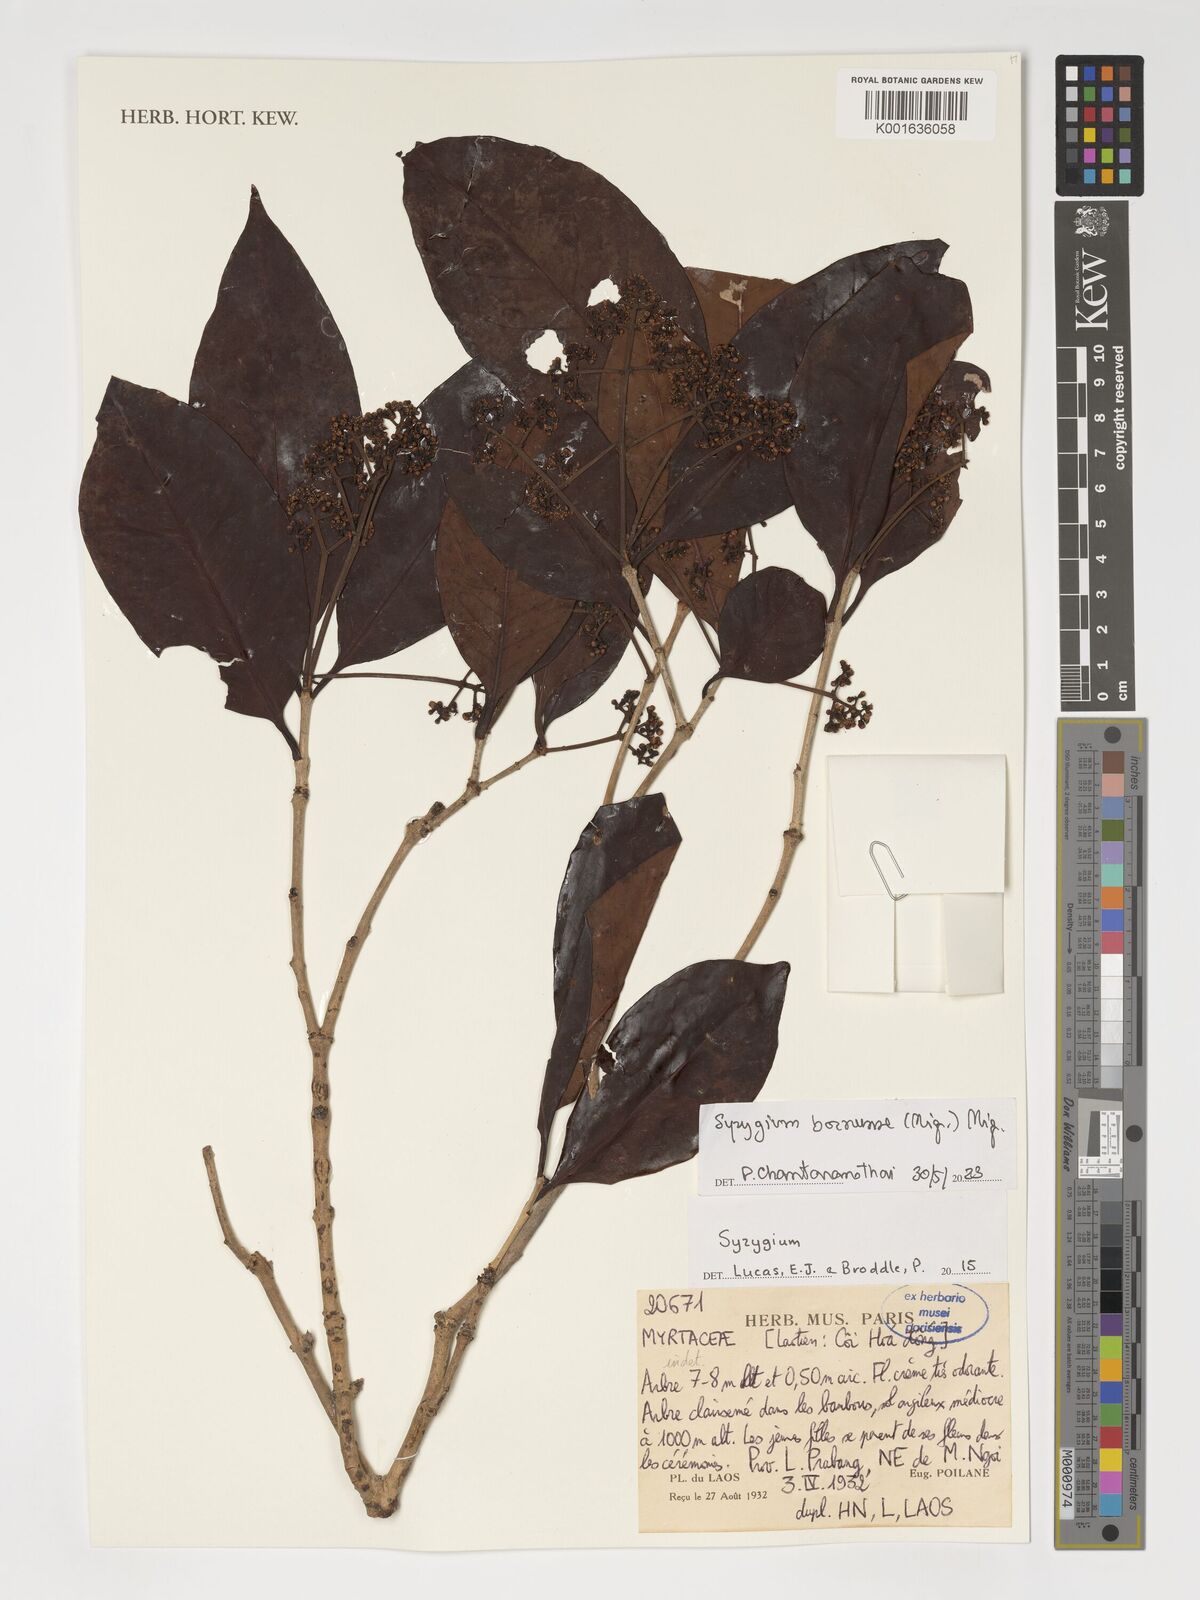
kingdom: Plantae
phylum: Tracheophyta
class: Magnoliopsida
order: Myrtales
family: Myrtaceae
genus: Syzygium
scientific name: Syzygium borneense
